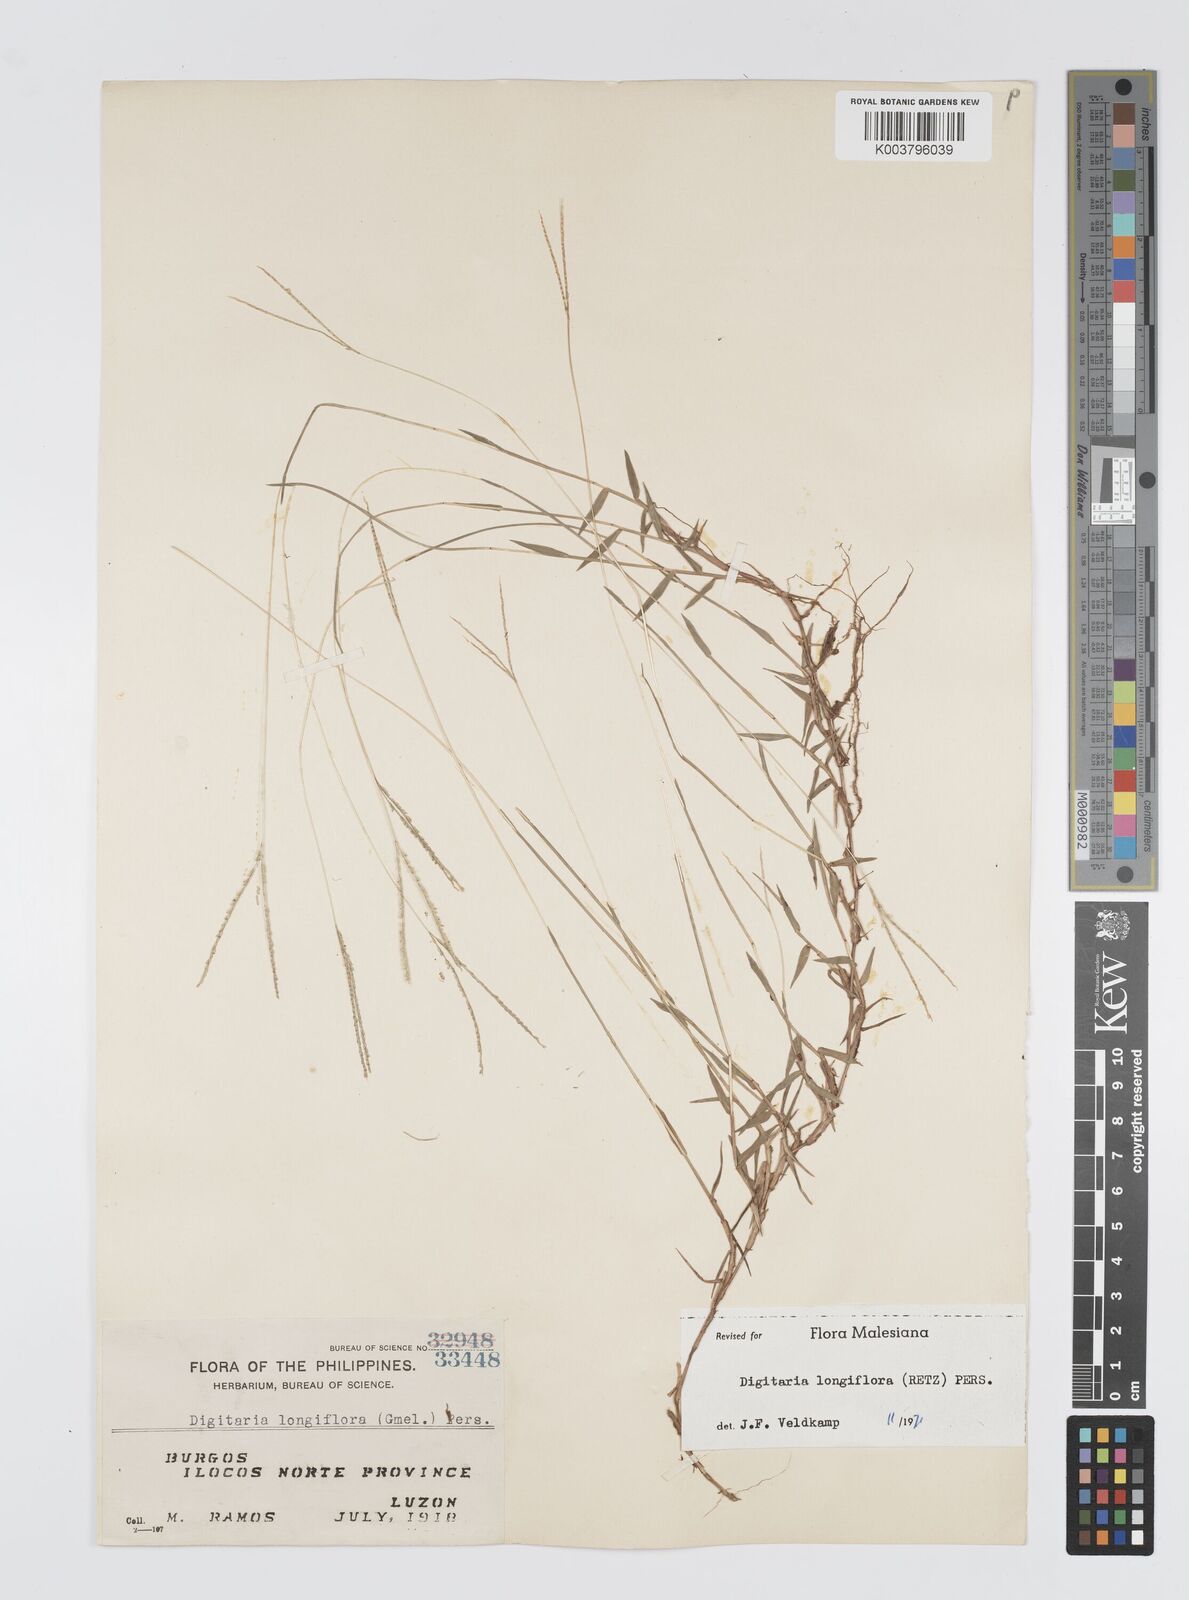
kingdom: Plantae
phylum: Tracheophyta
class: Liliopsida
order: Poales
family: Poaceae
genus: Digitaria
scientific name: Digitaria longiflora
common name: Wire crabgrass
